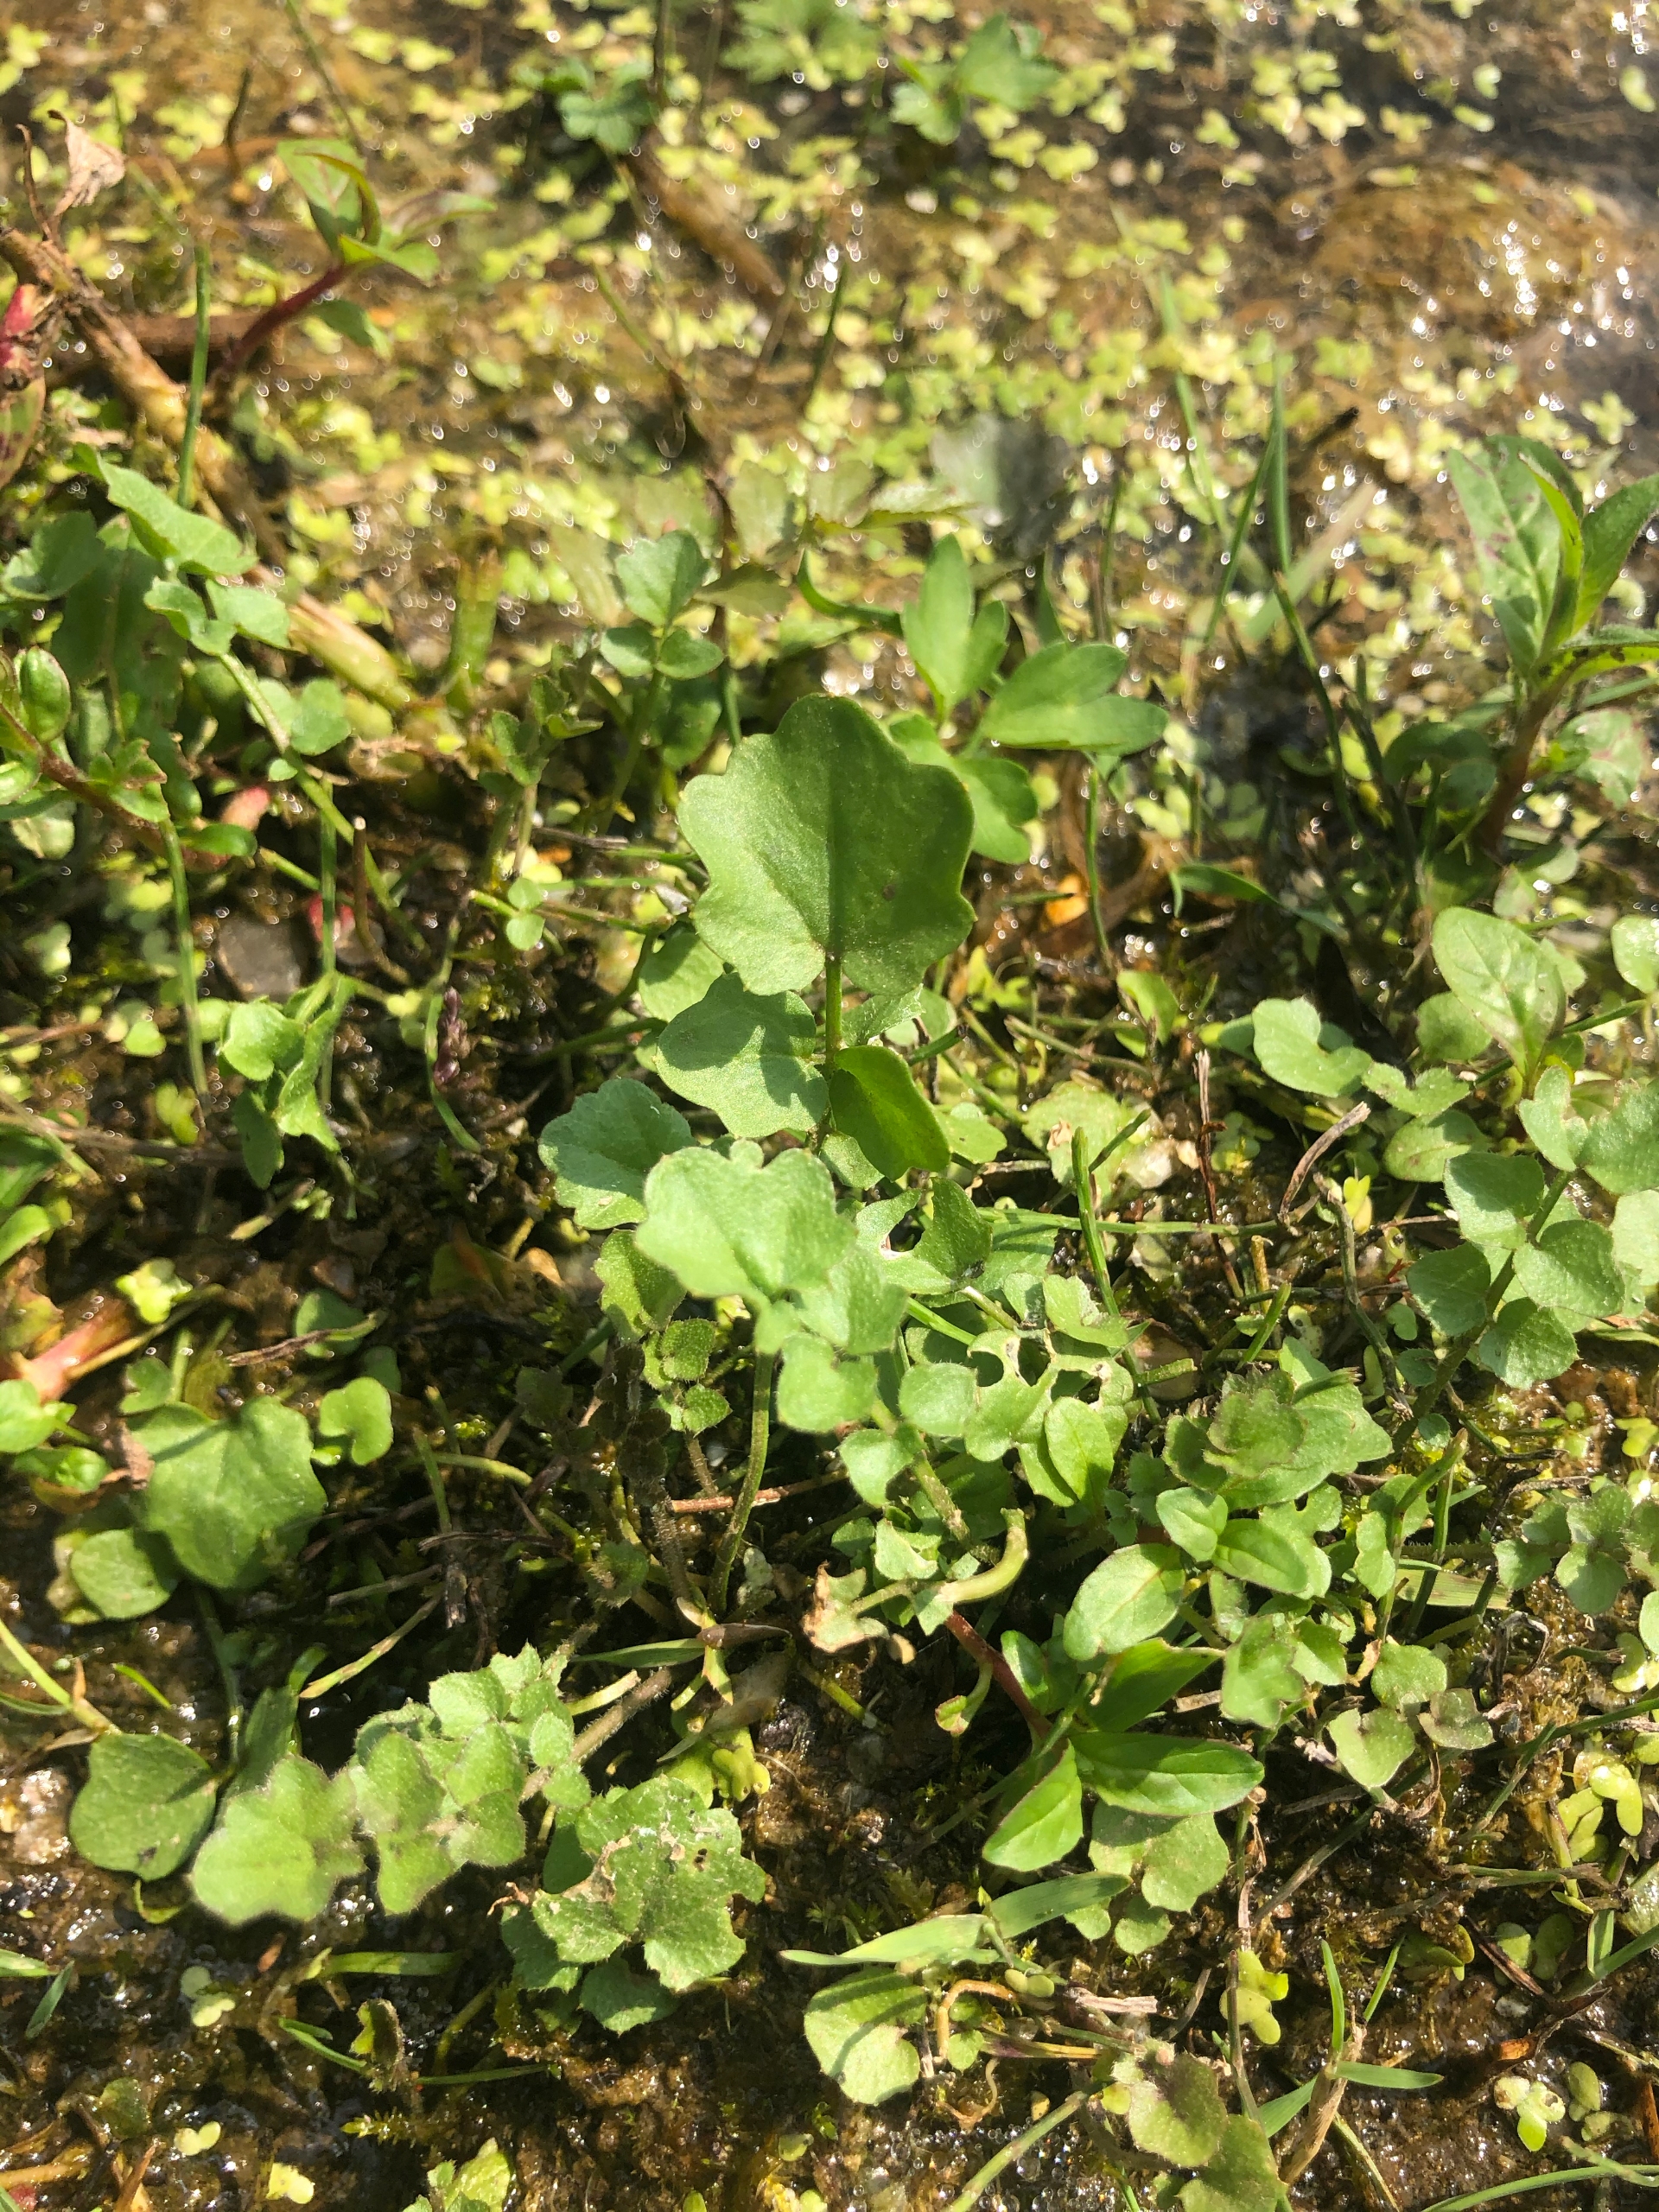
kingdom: Plantae
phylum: Tracheophyta
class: Magnoliopsida
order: Brassicales
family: Brassicaceae
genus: Cardamine
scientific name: Cardamine pratensis
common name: Engkarse
